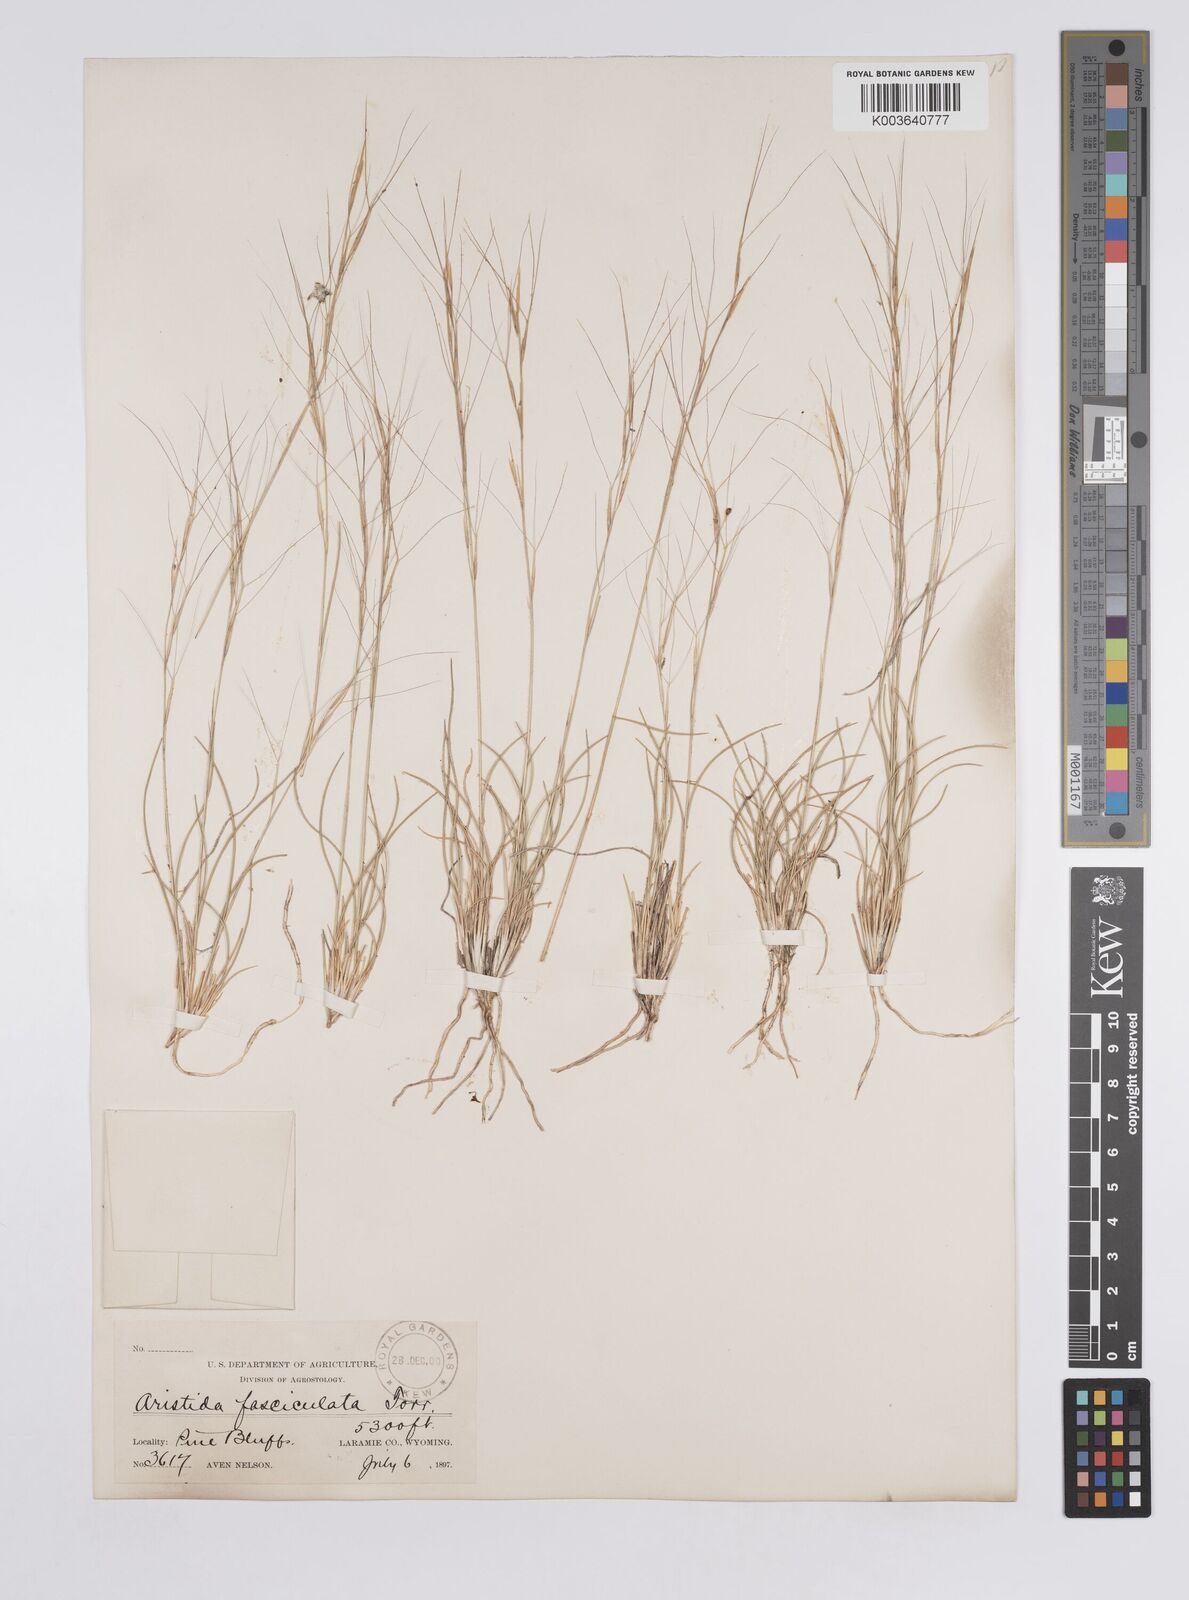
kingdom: Plantae
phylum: Tracheophyta
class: Liliopsida
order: Poales
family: Poaceae
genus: Aristida
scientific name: Aristida adscensionis
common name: Sixweeks threeawn
